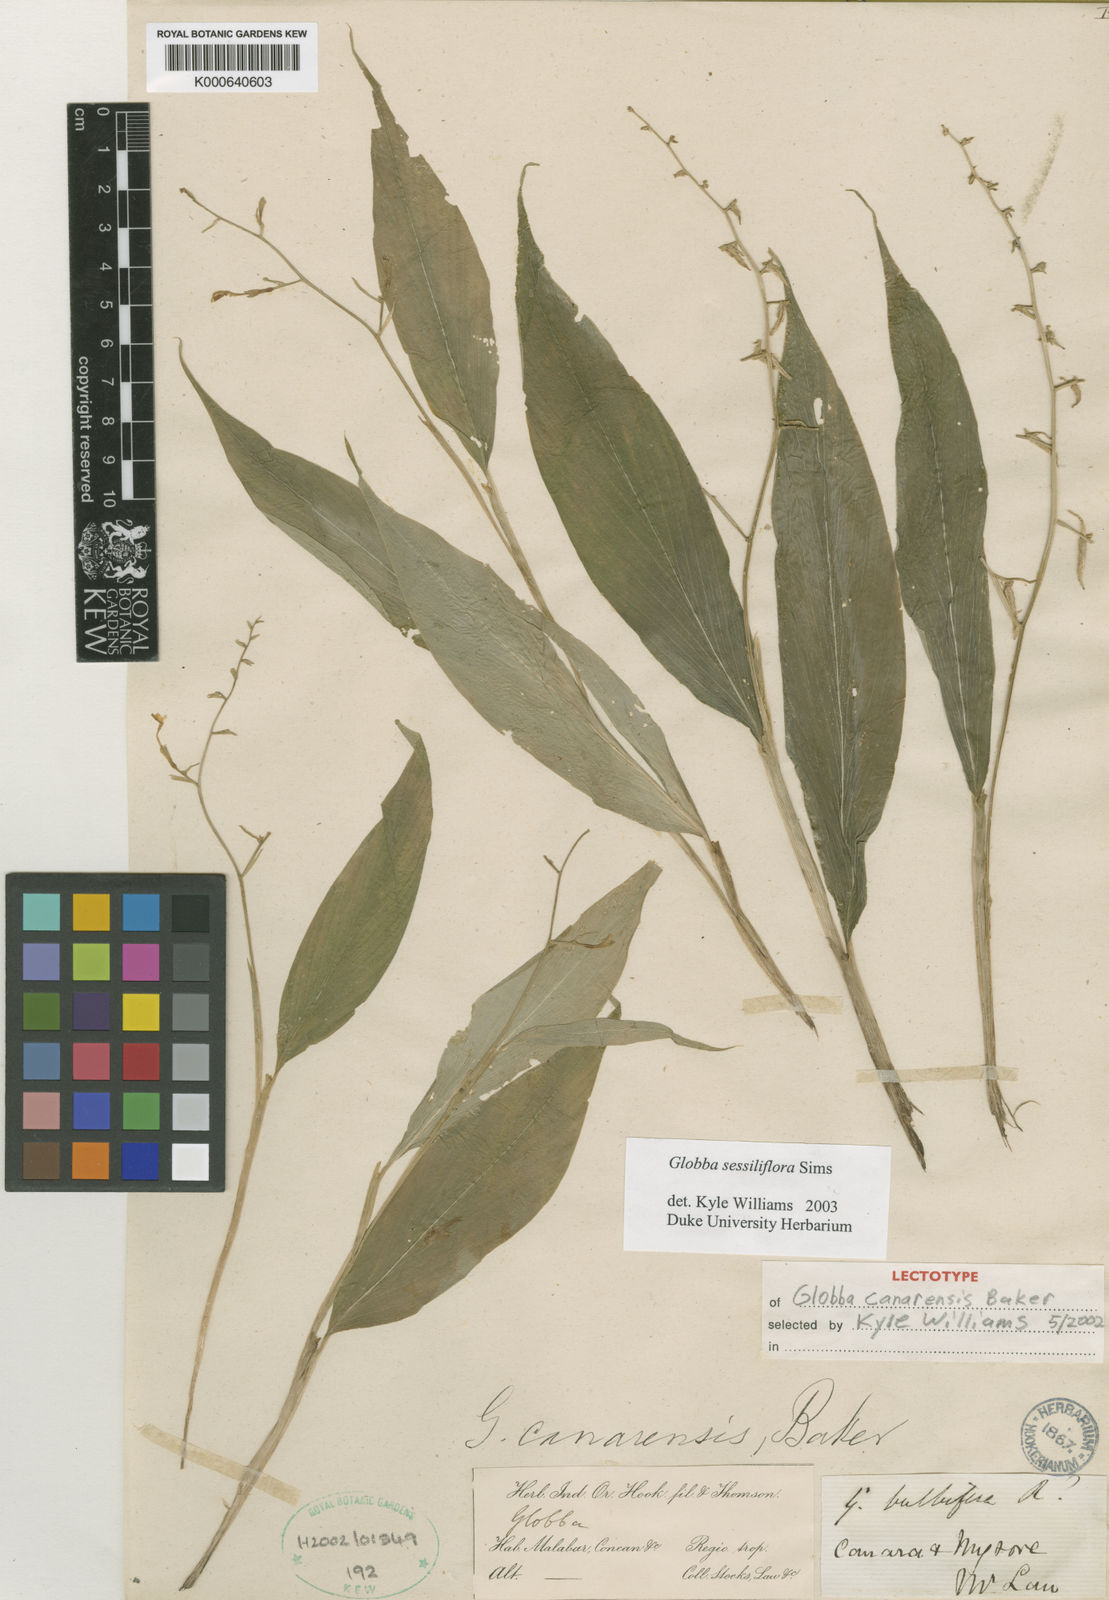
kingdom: Plantae
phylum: Tracheophyta
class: Liliopsida
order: Zingiberales
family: Zingiberaceae
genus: Globba
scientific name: Globba sessiliflora
